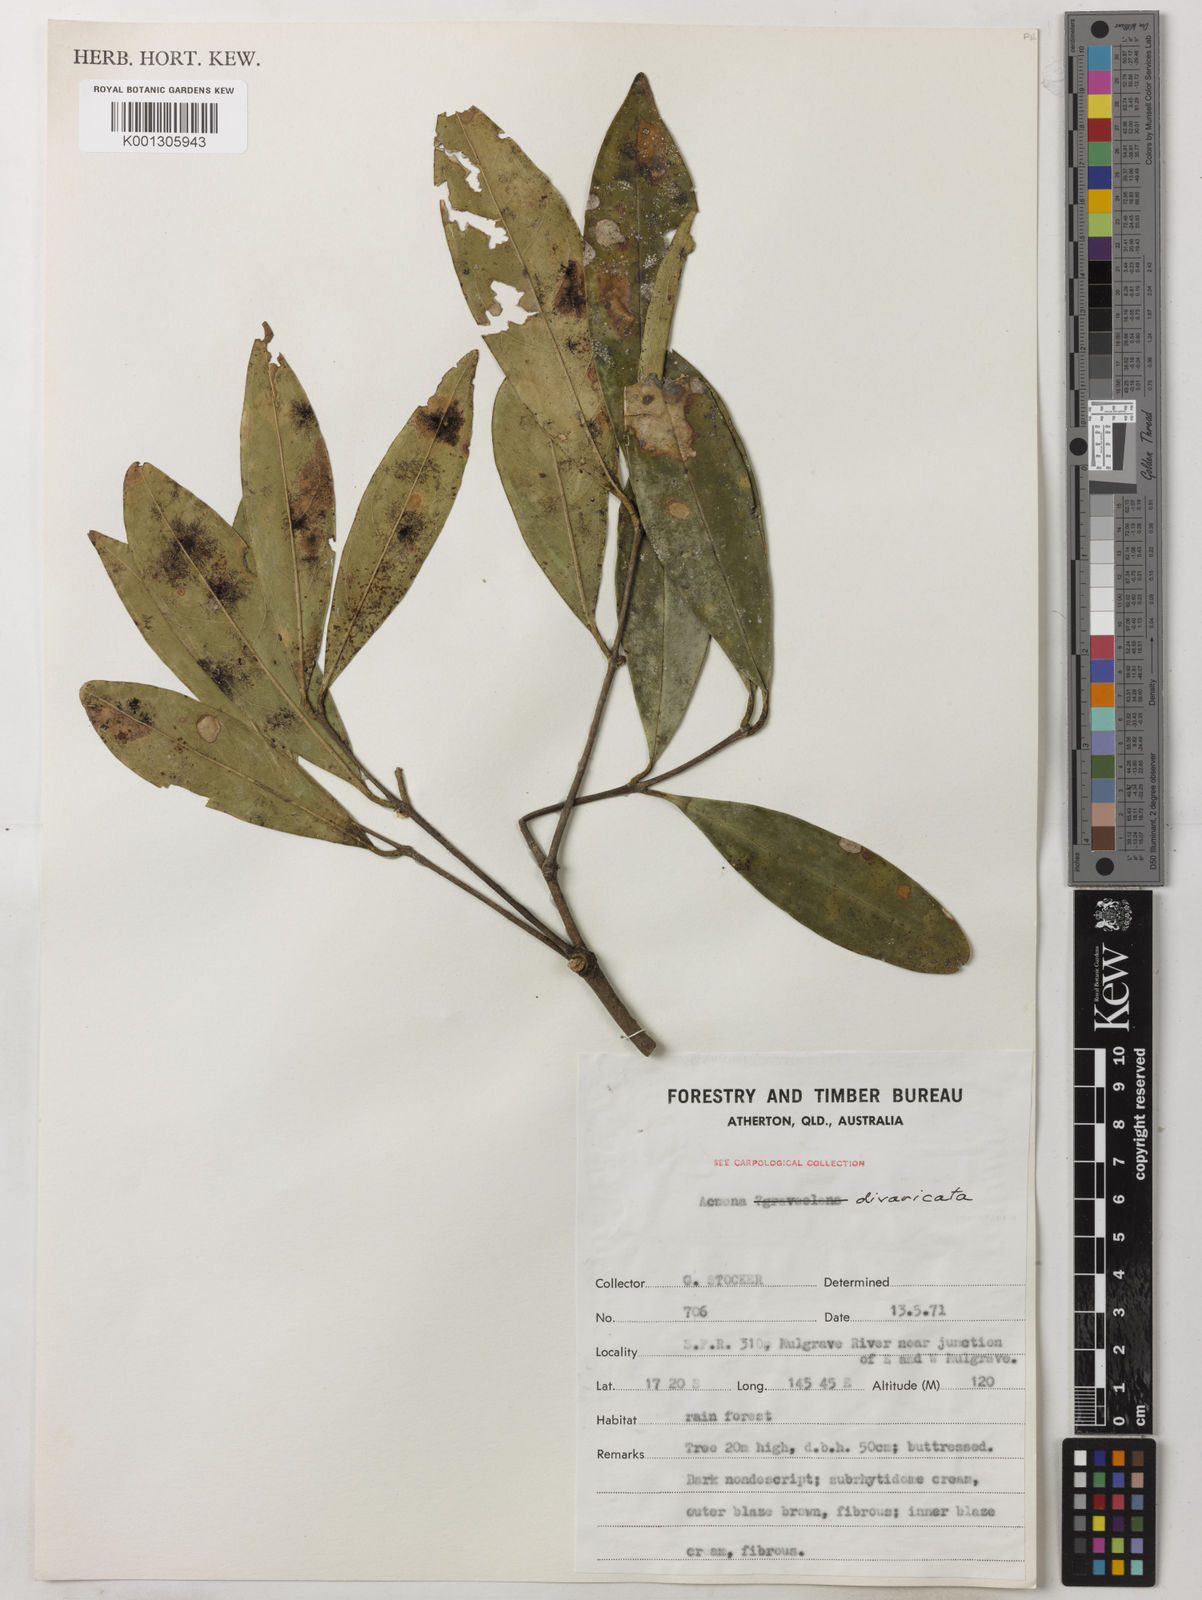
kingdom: Plantae
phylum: Tracheophyta
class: Magnoliopsida
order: Myrtales
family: Myrtaceae
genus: Syzygium
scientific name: Syzygium divaricatum
